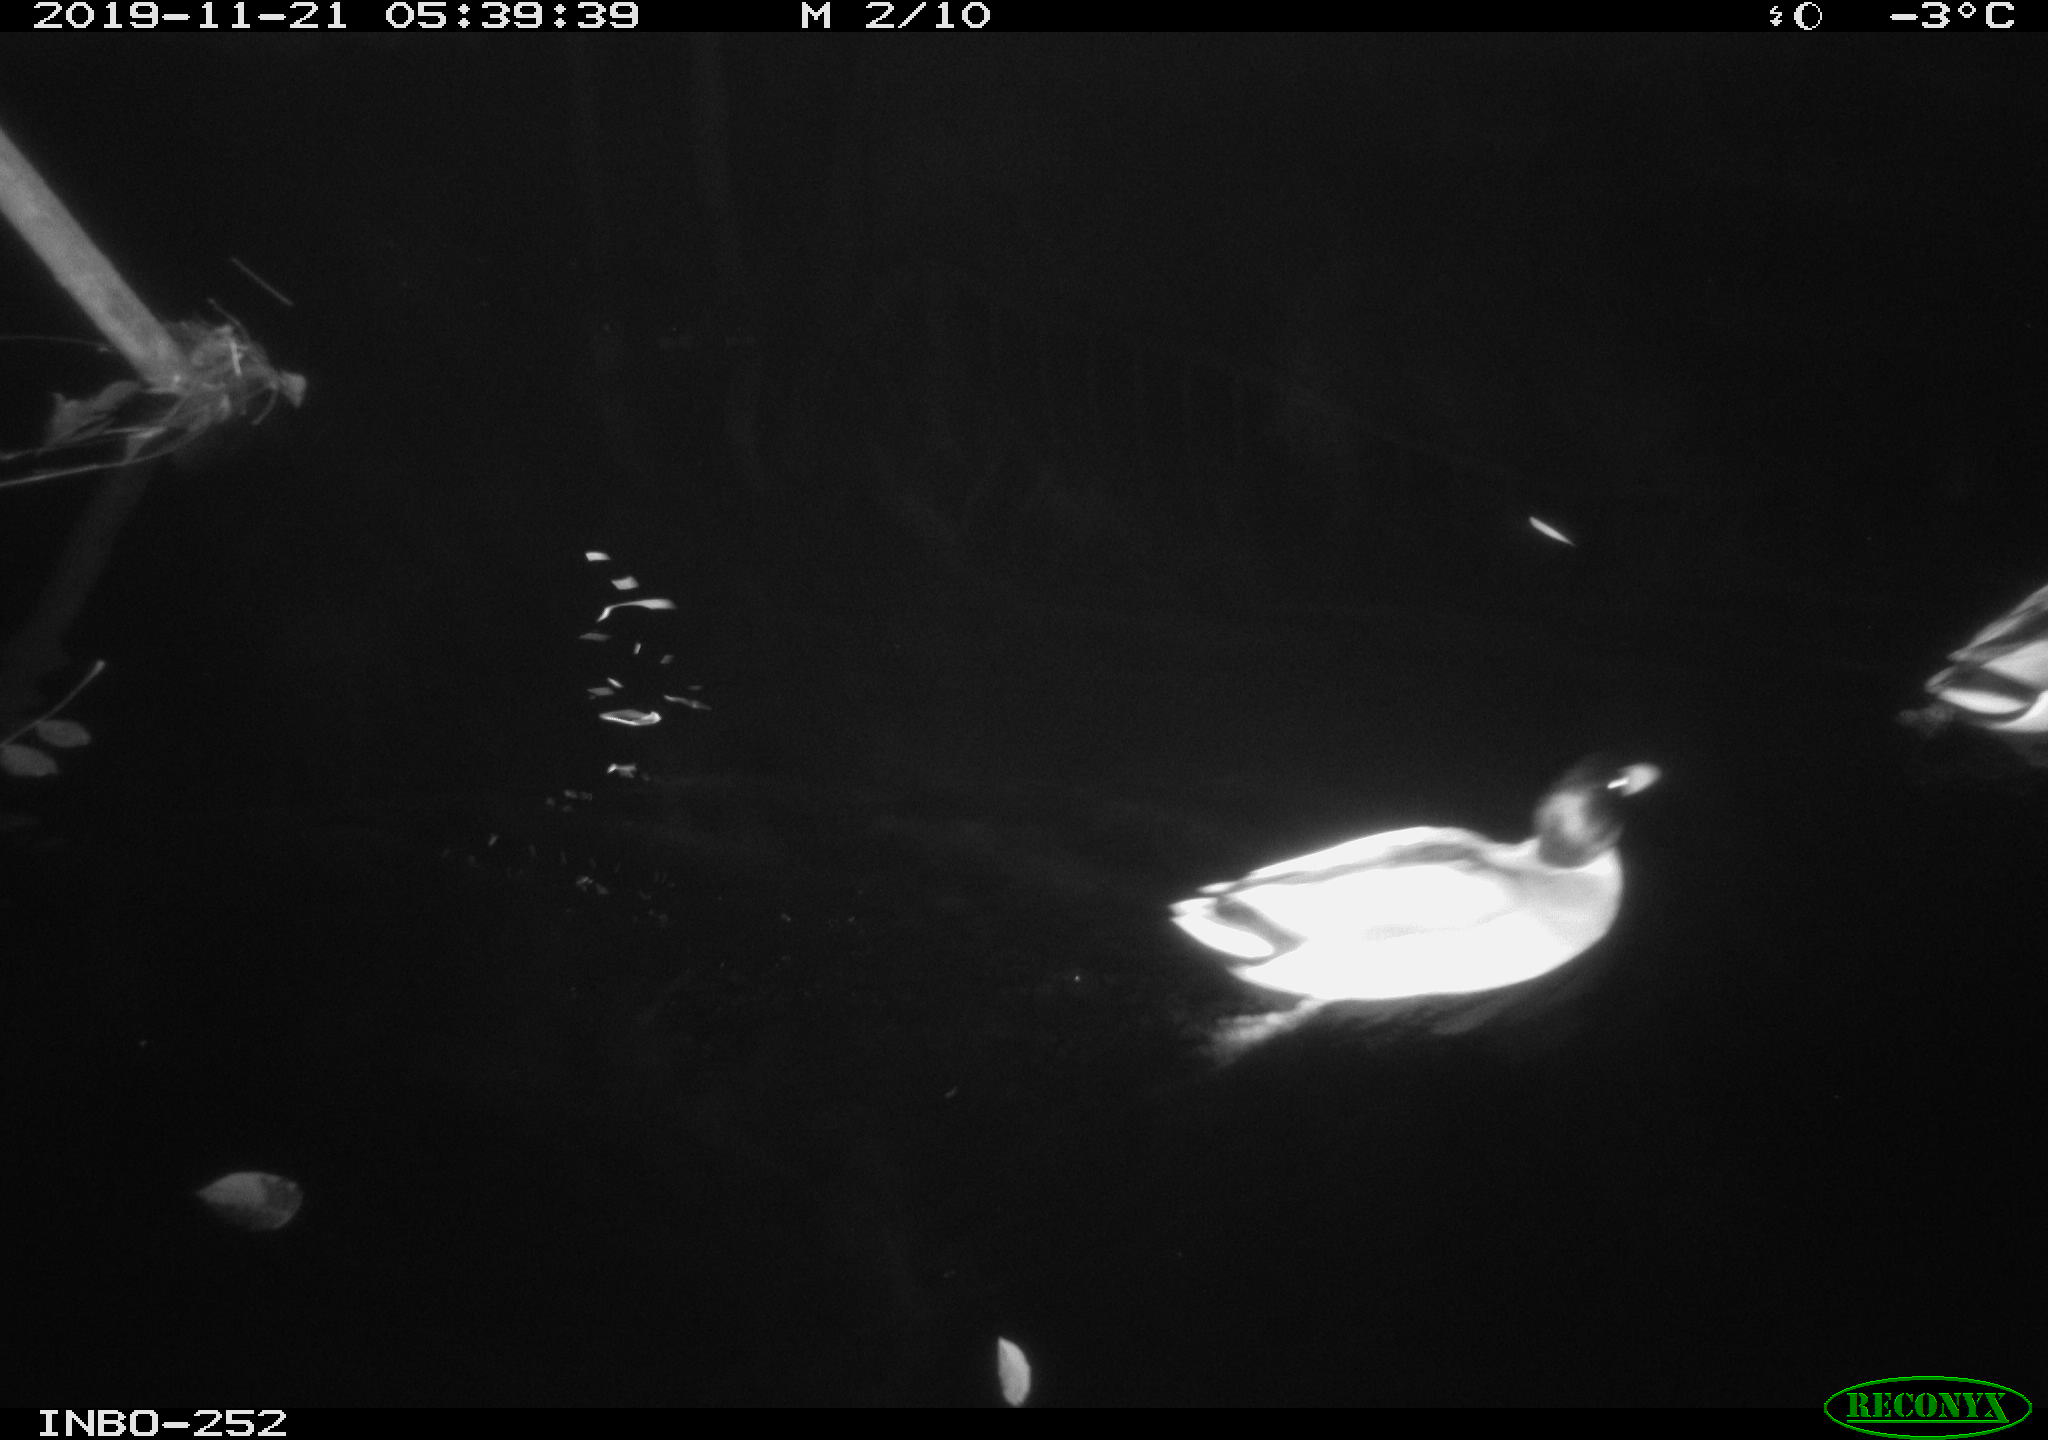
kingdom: Animalia
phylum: Chordata
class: Aves
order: Anseriformes
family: Anatidae
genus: Anas
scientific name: Anas platyrhynchos
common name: Mallard
